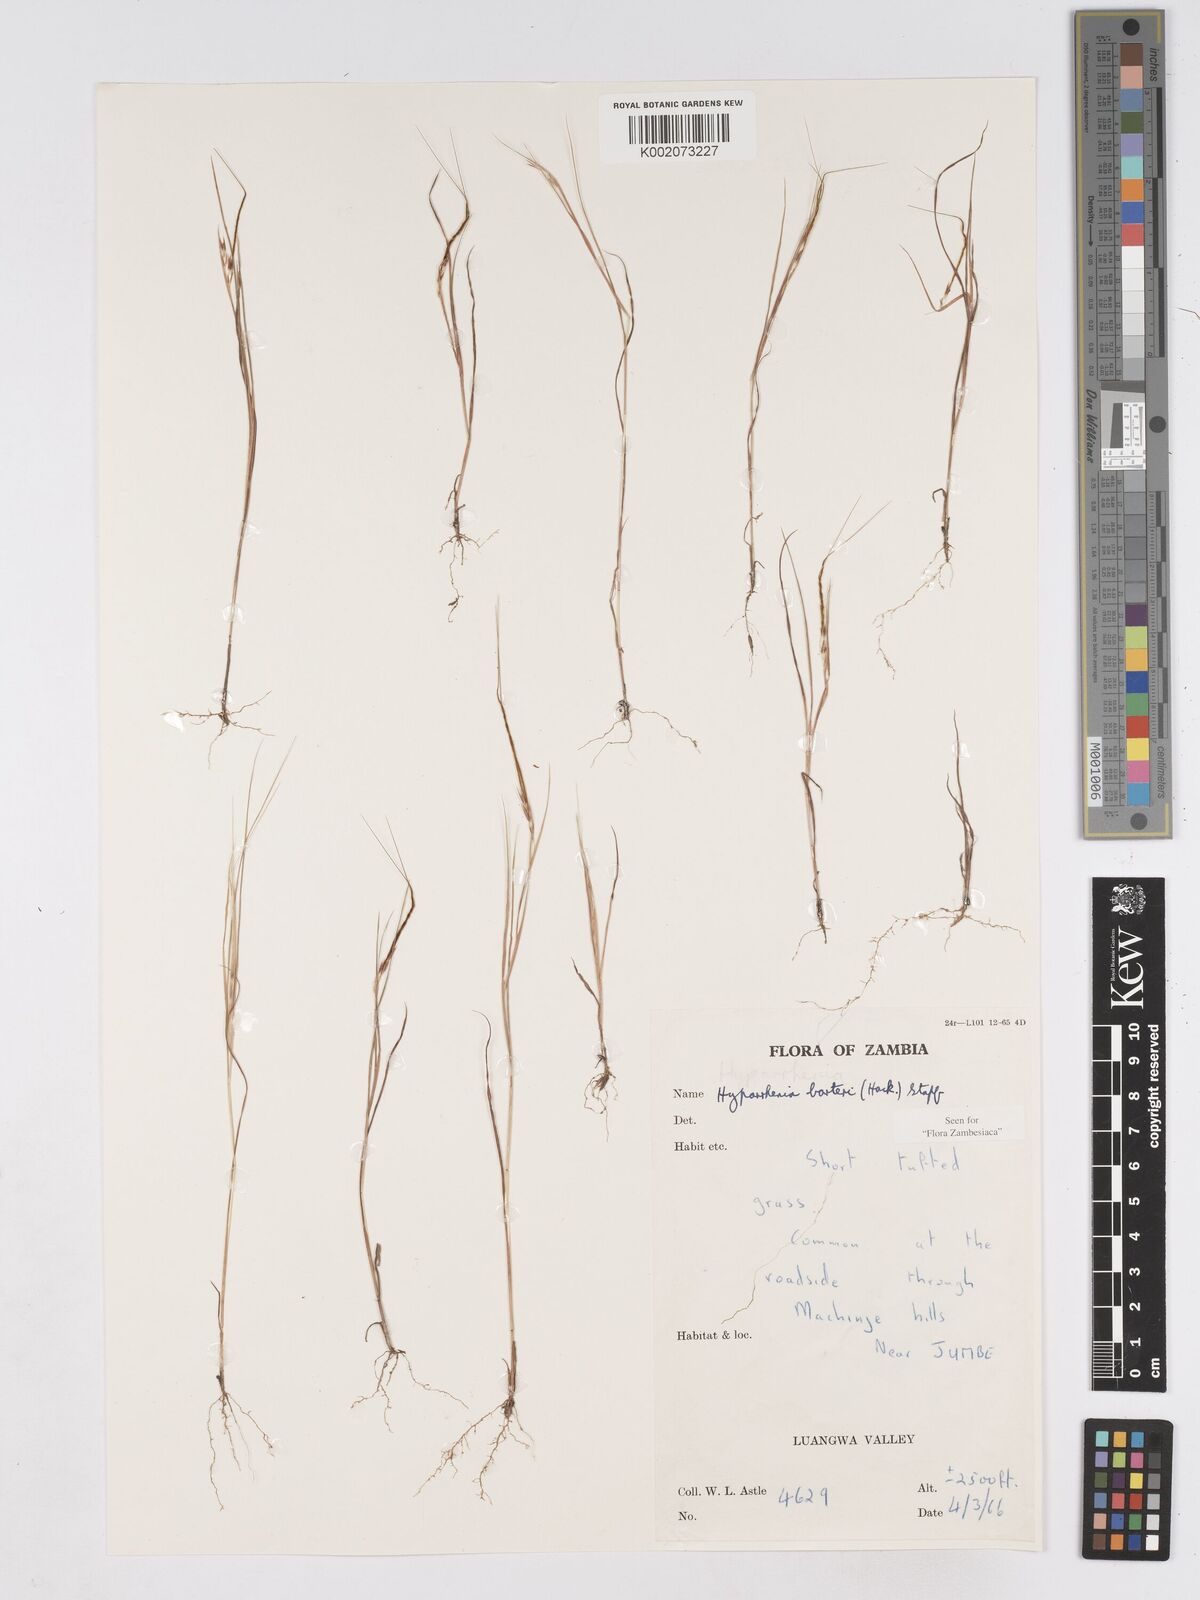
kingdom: Plantae
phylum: Tracheophyta
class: Liliopsida
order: Poales
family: Poaceae
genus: Hyparrhenia
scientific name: Hyparrhenia barteri
